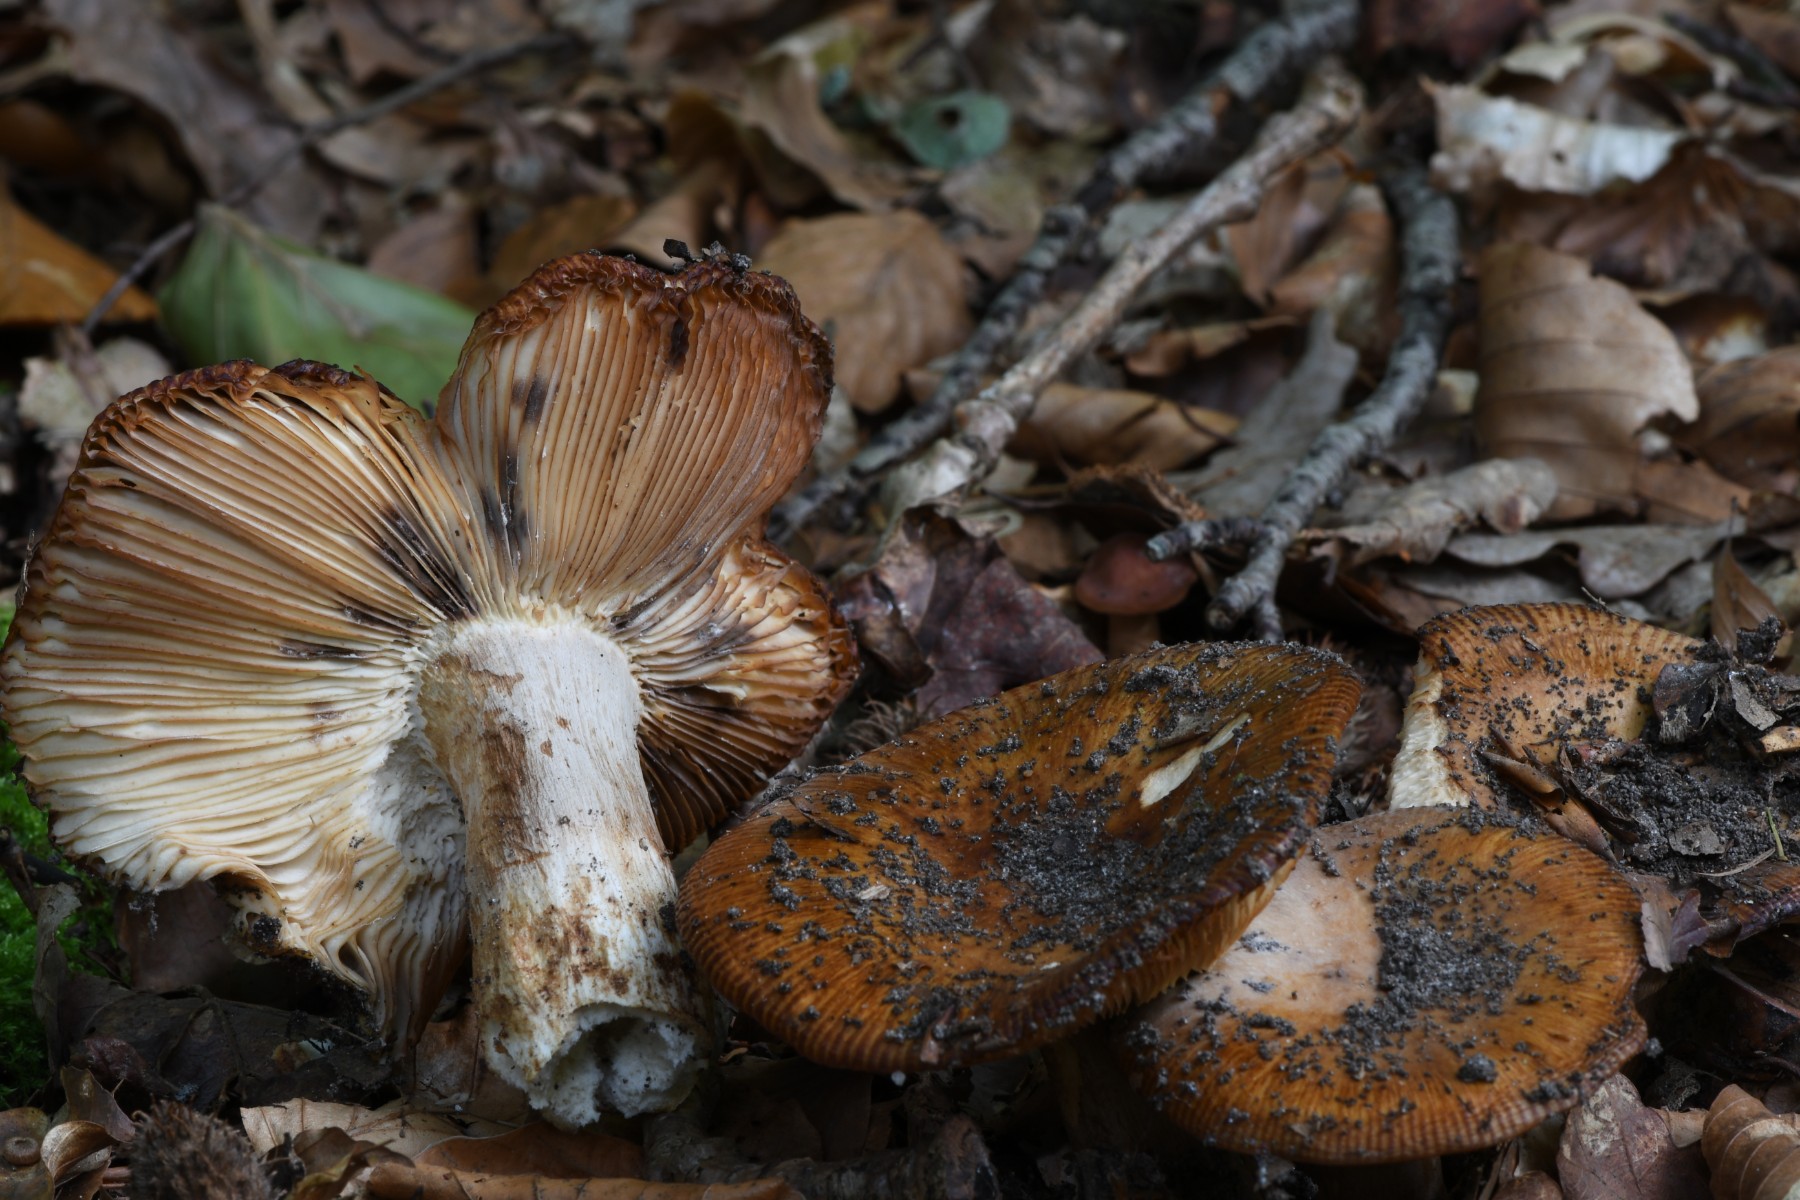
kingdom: Fungi
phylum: Basidiomycota
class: Agaricomycetes
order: Russulales
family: Russulaceae
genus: Russula
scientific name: Russula grata
